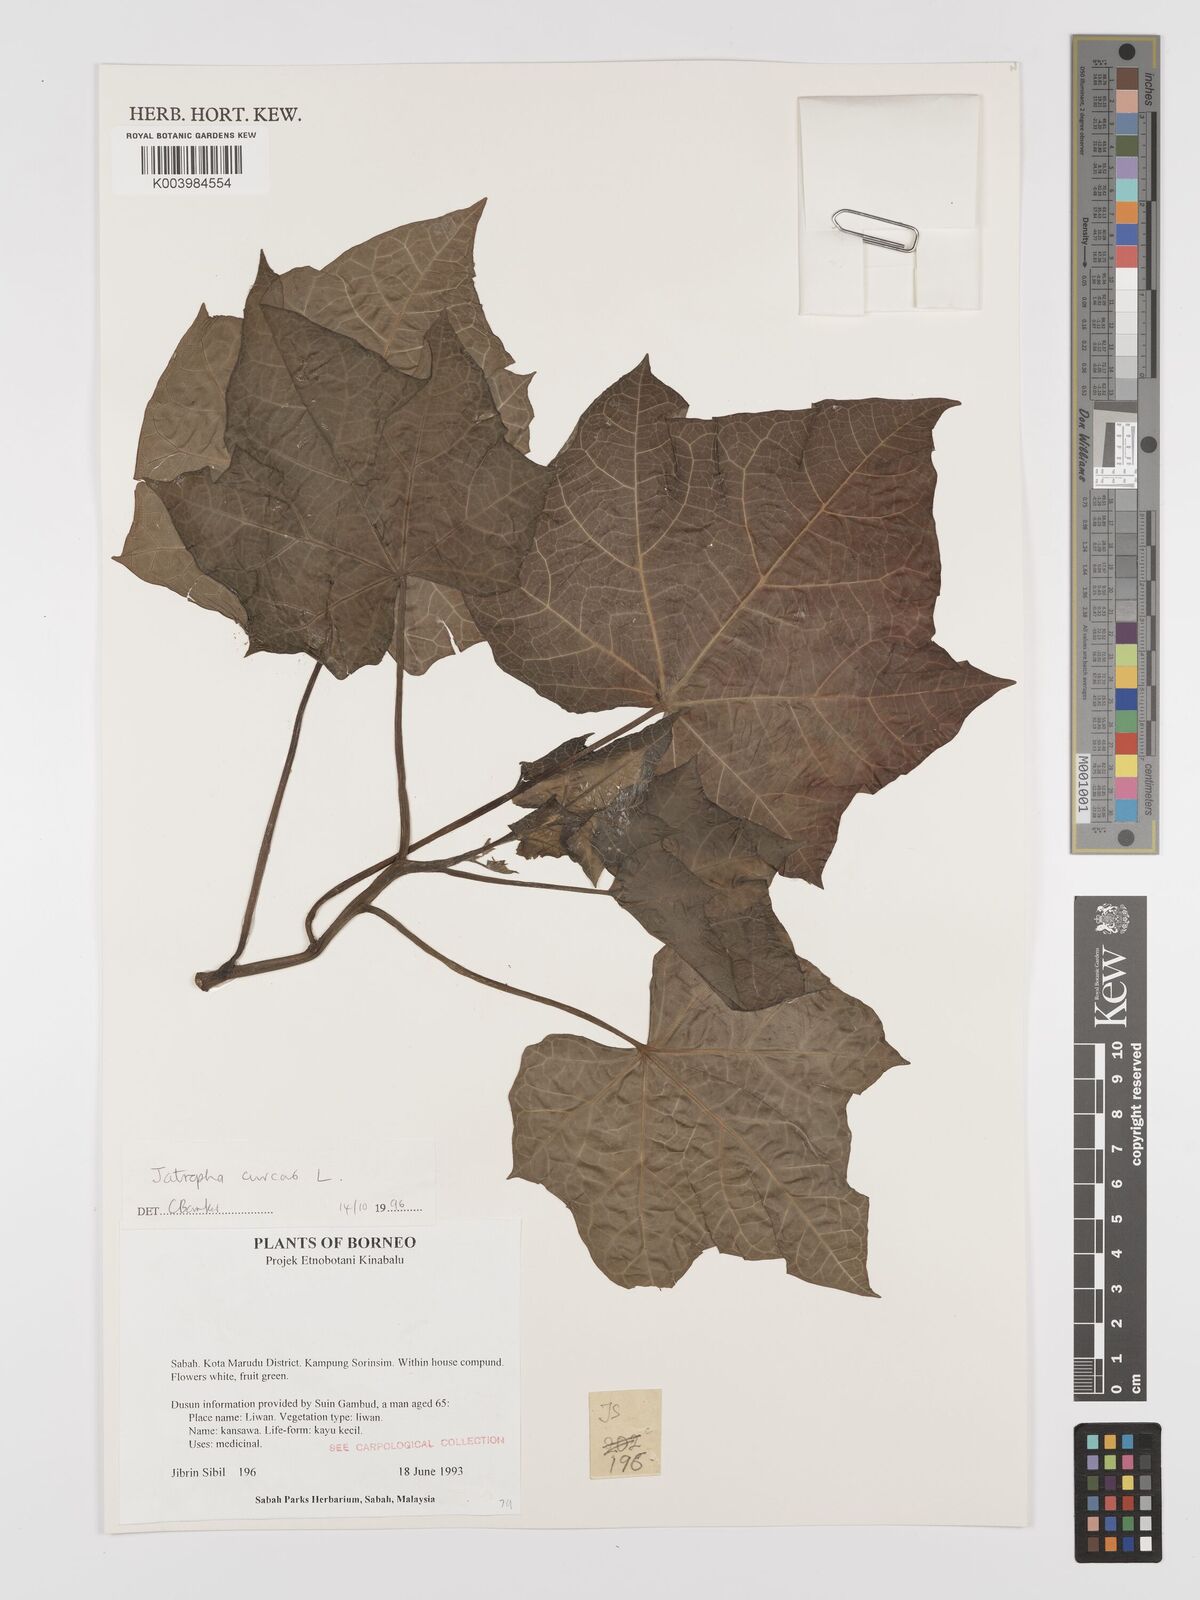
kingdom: Plantae
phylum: Tracheophyta
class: Magnoliopsida
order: Malpighiales
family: Euphorbiaceae
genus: Jatropha
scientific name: Jatropha curcas
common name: Barbados nut
